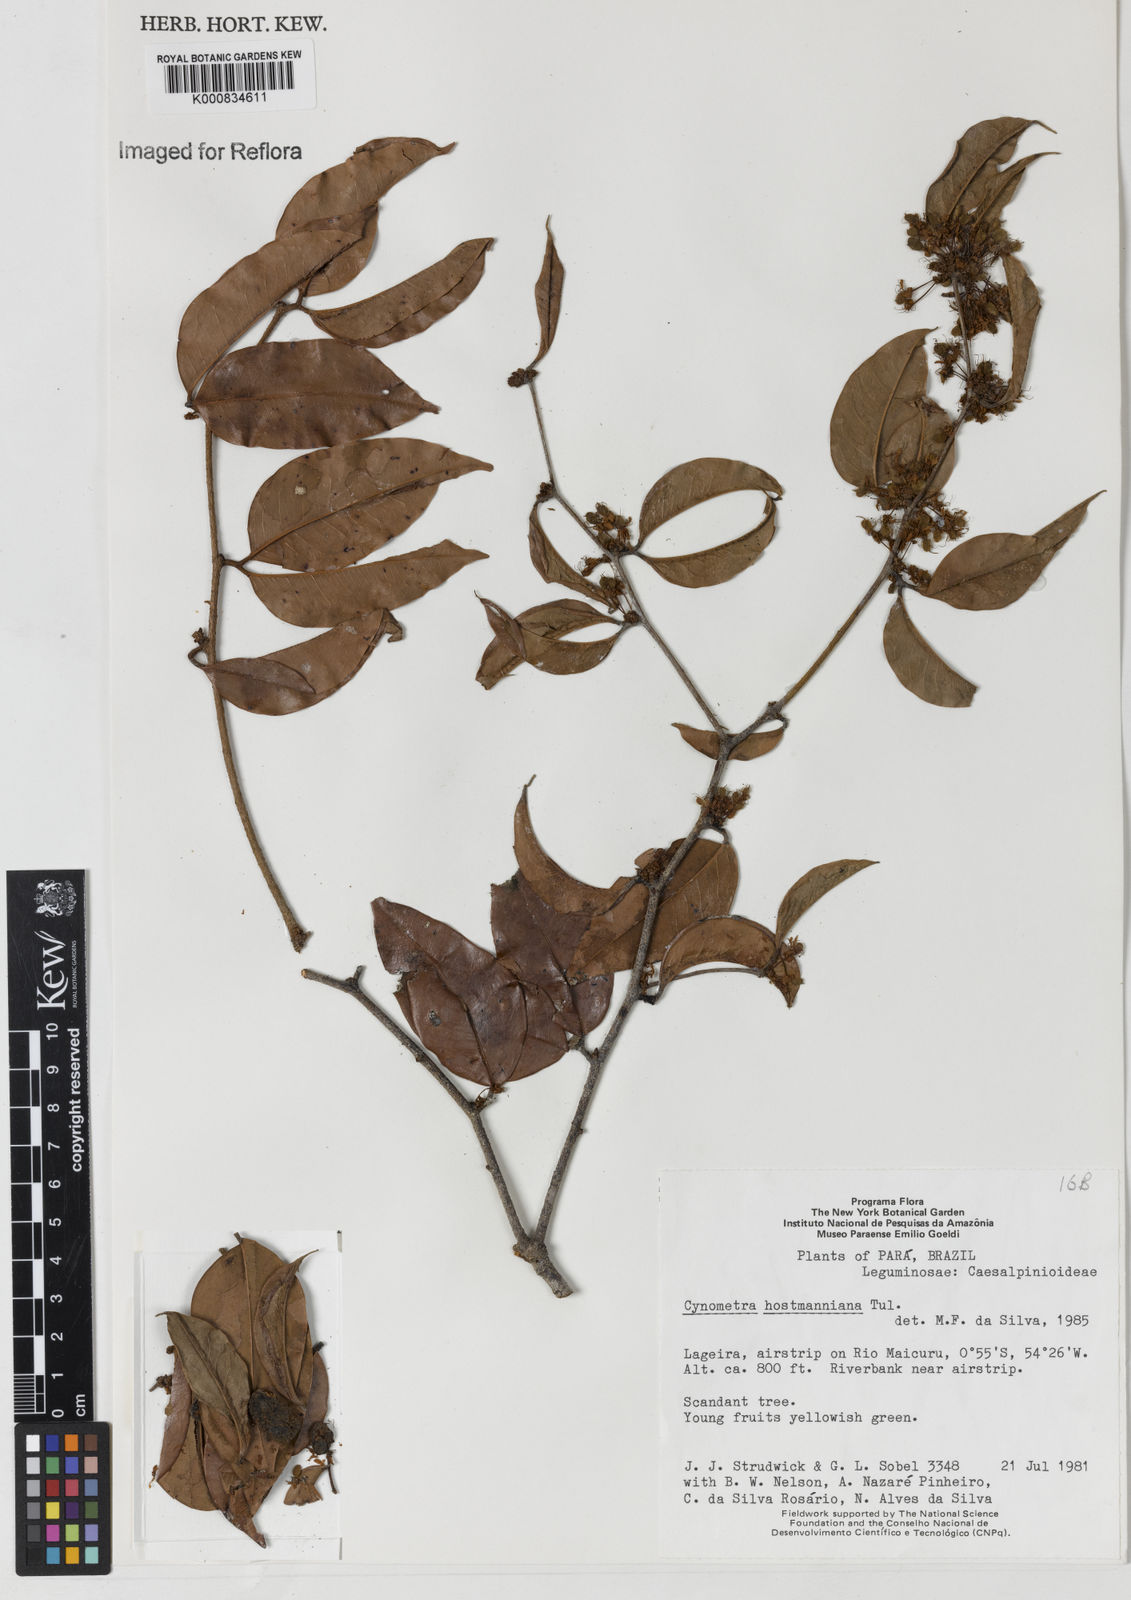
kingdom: Plantae
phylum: Tracheophyta
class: Magnoliopsida
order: Fabales
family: Fabaceae
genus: Cynometra
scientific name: Cynometra hostmanniana
